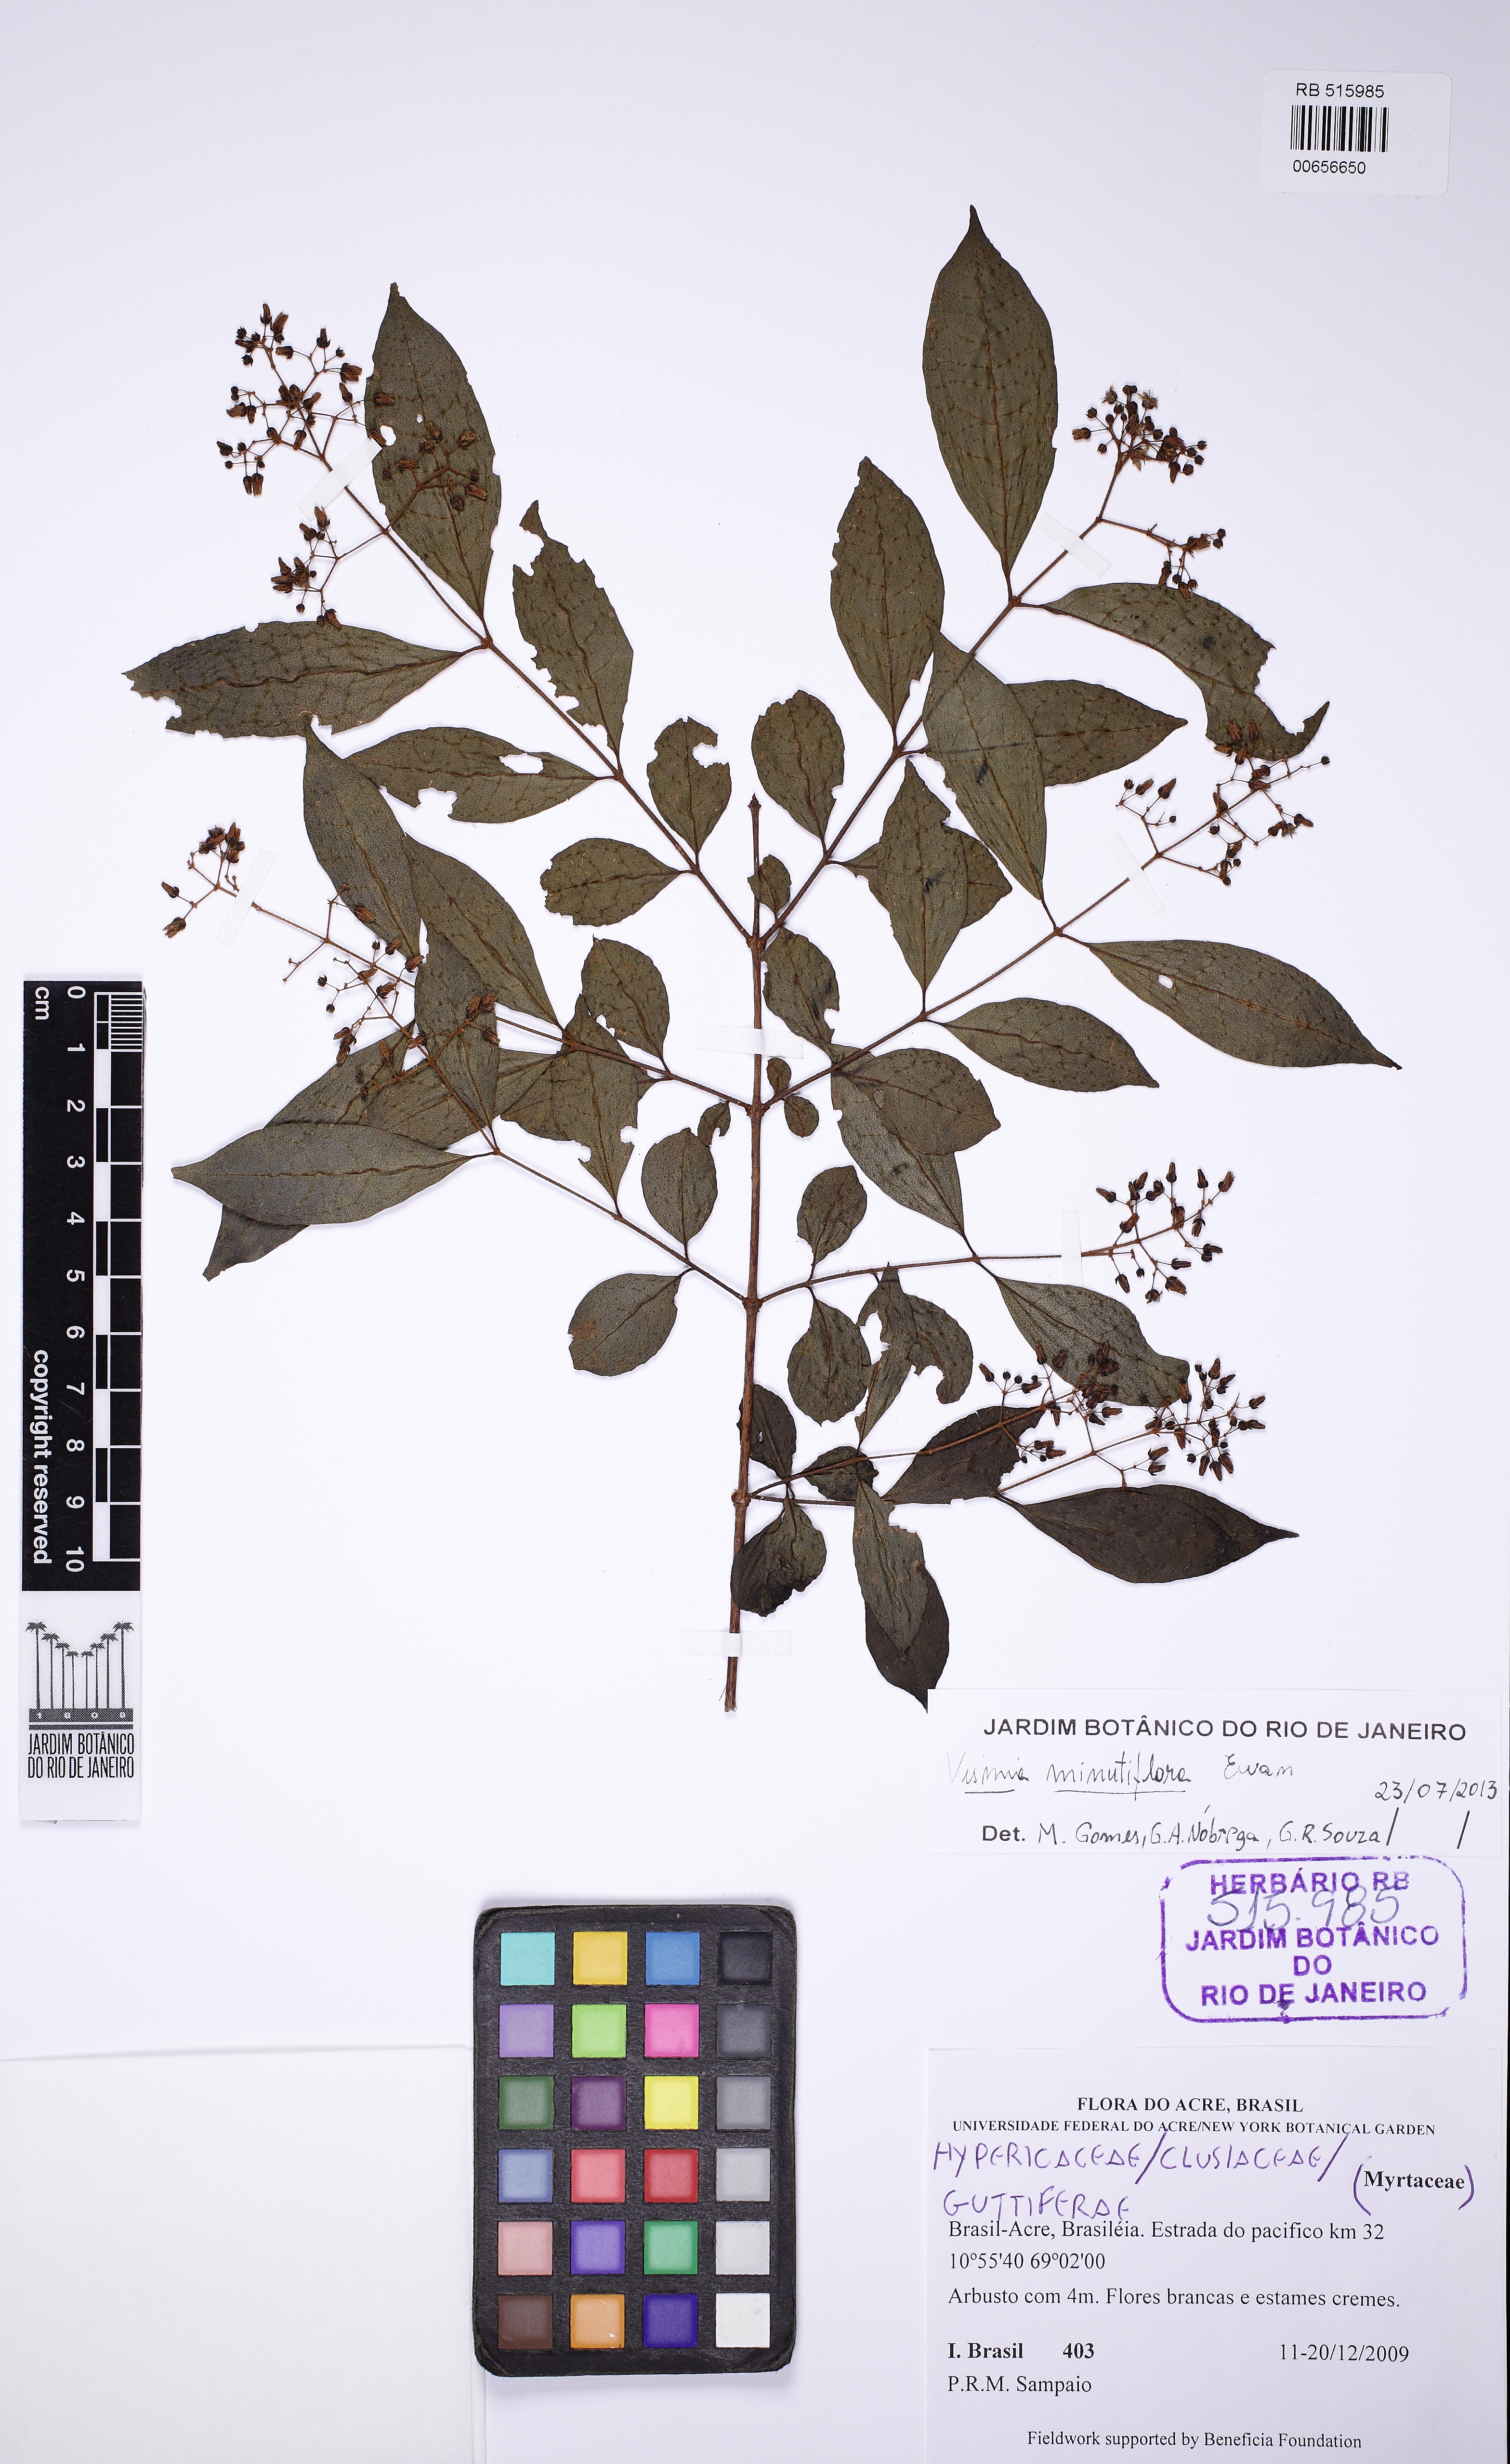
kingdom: Plantae
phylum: Tracheophyta
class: Magnoliopsida
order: Malpighiales
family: Hypericaceae
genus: Vismia
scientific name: Vismia minutiflora
